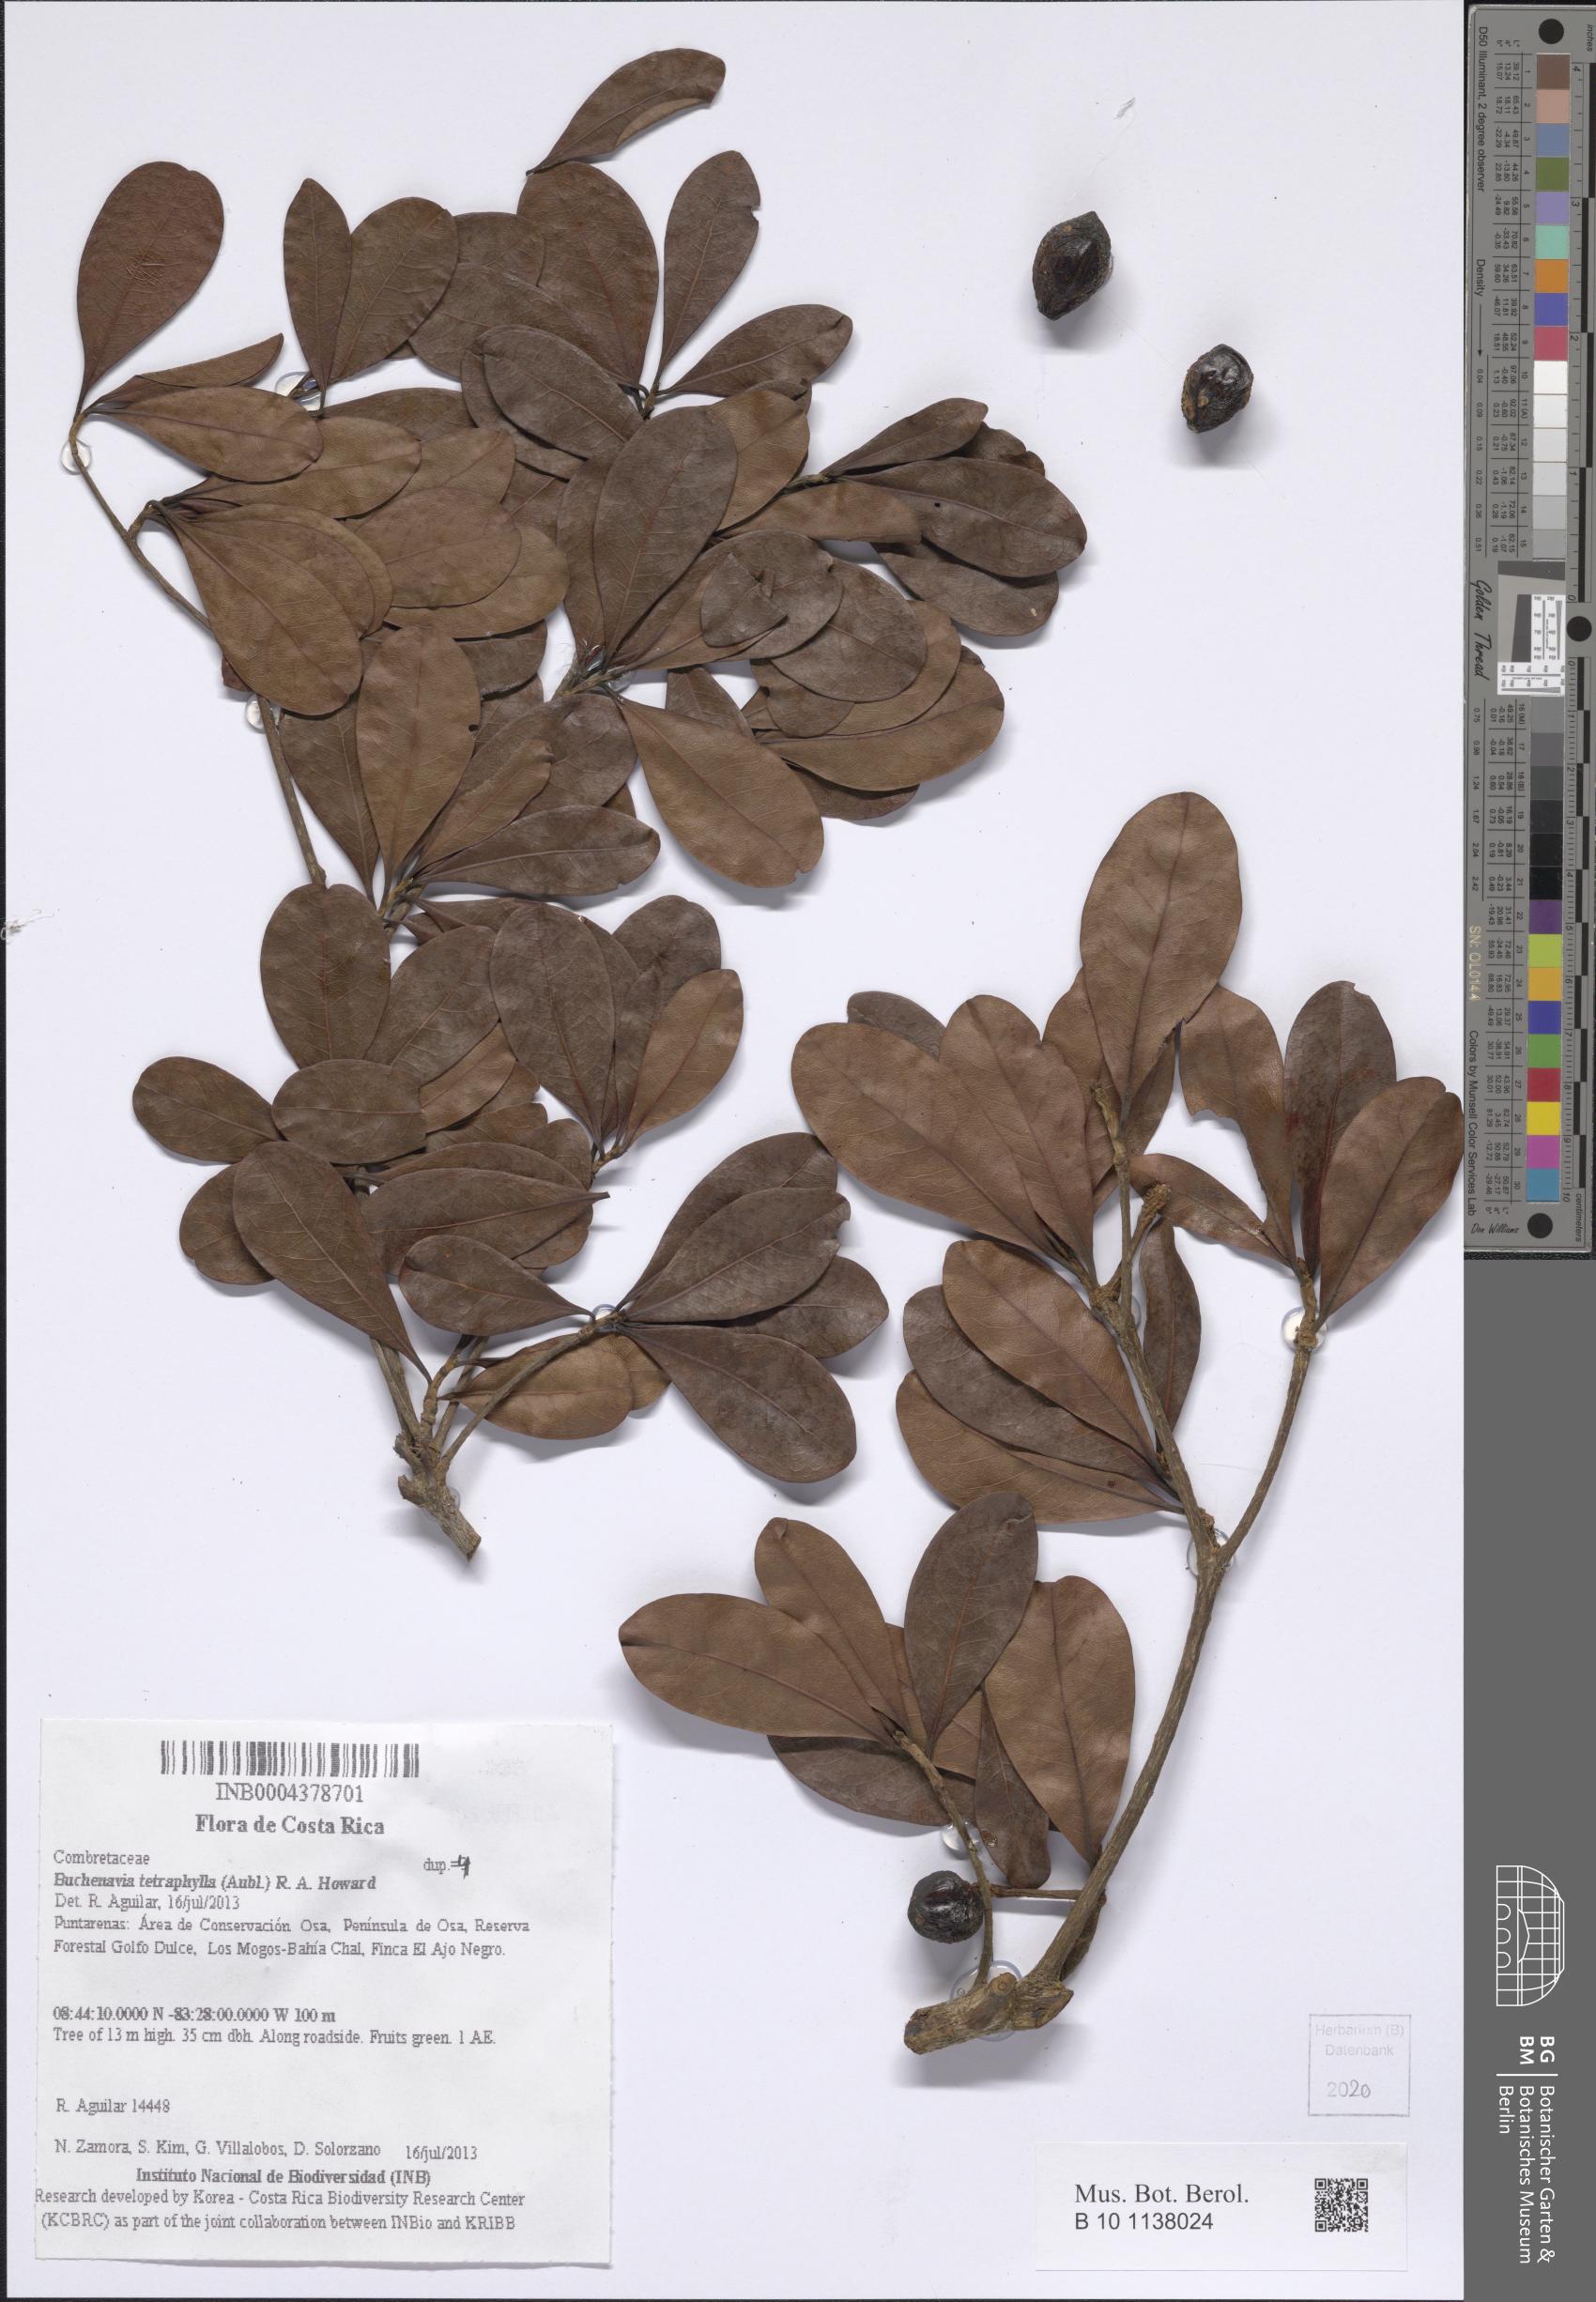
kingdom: Plantae
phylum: Tracheophyta
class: Magnoliopsida
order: Myrtales
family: Combretaceae
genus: Terminalia
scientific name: Terminalia tetraphylla
